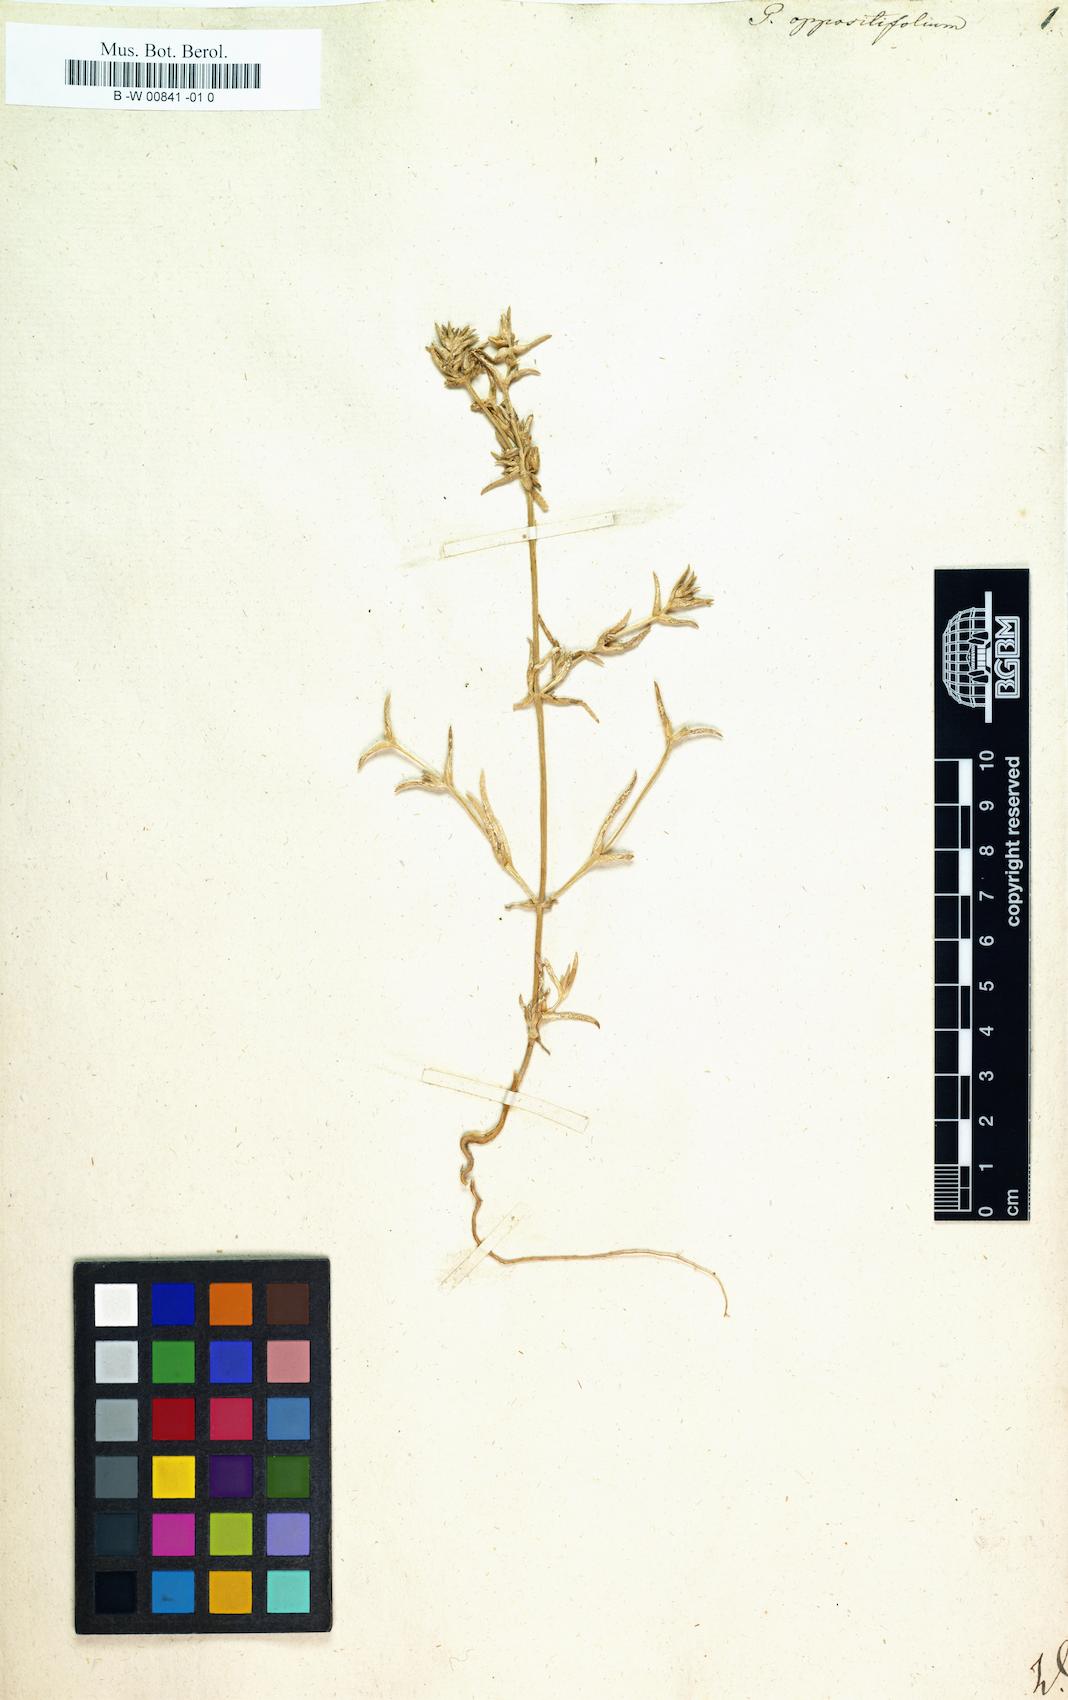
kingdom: Plantae
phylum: Tracheophyta
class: Magnoliopsida
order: Caryophyllales
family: Amaranthaceae
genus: Petrosimonia
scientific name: Petrosimonia oppositifolia
